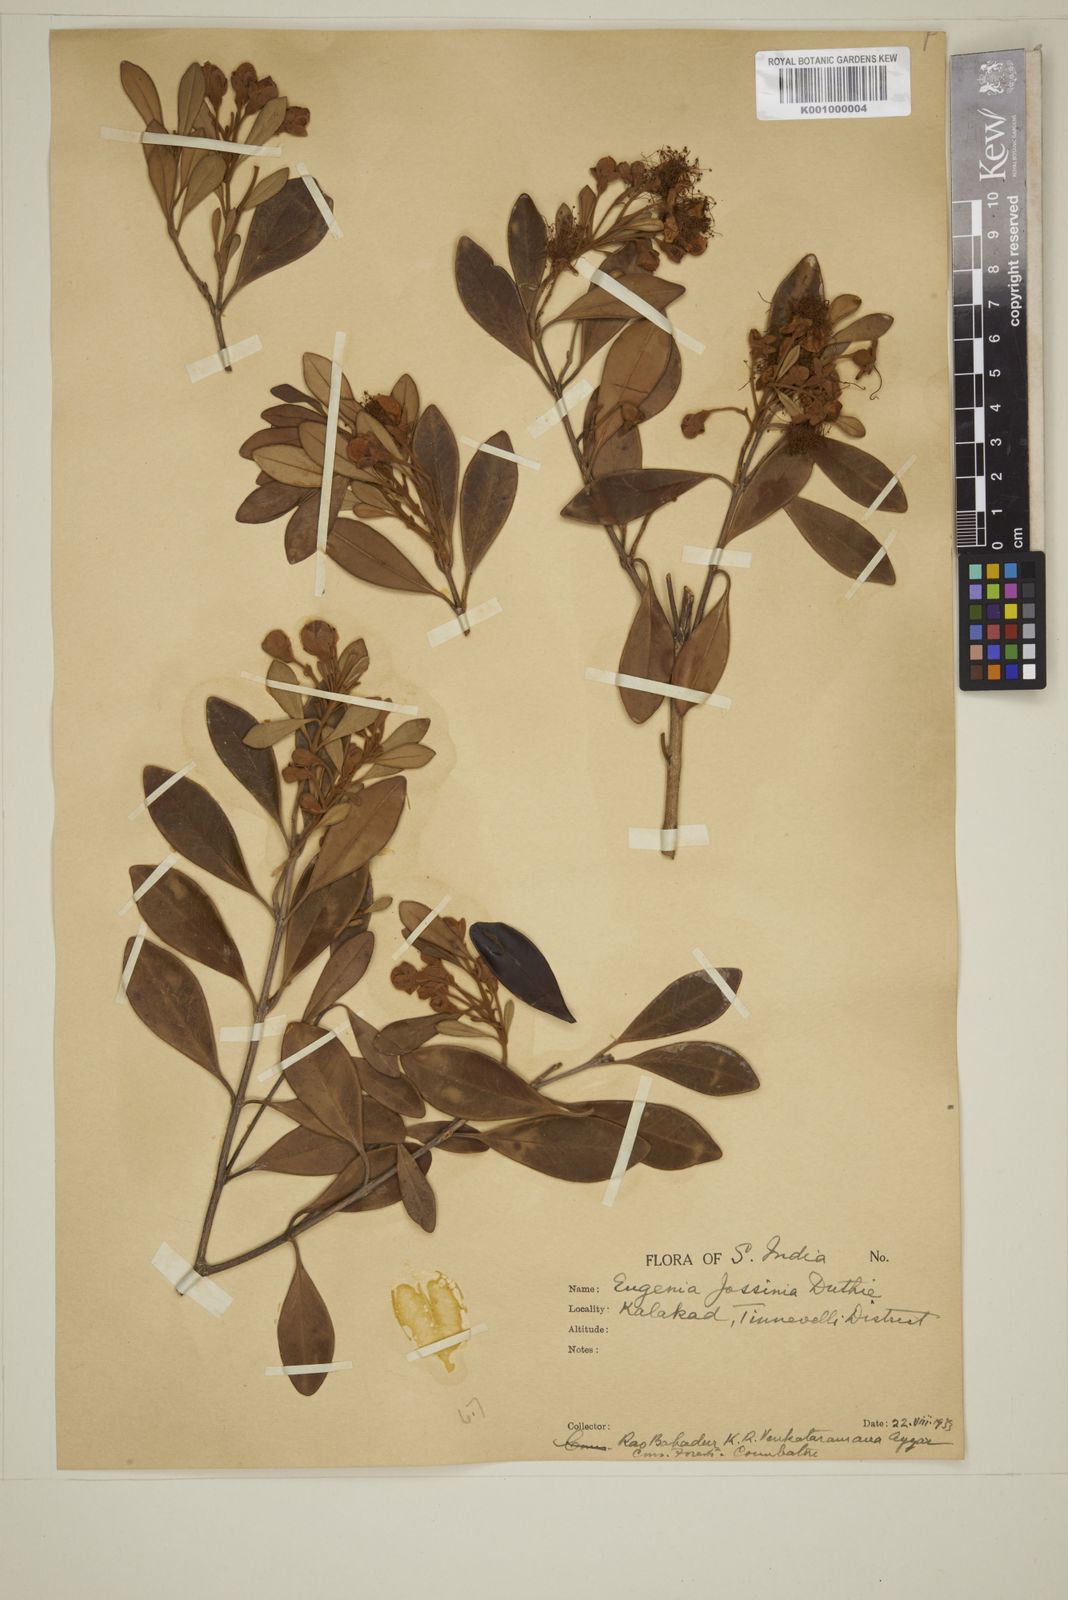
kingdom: Plantae
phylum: Tracheophyta
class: Magnoliopsida
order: Myrtales
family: Myrtaceae
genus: Eugenia
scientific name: Eugenia indica
